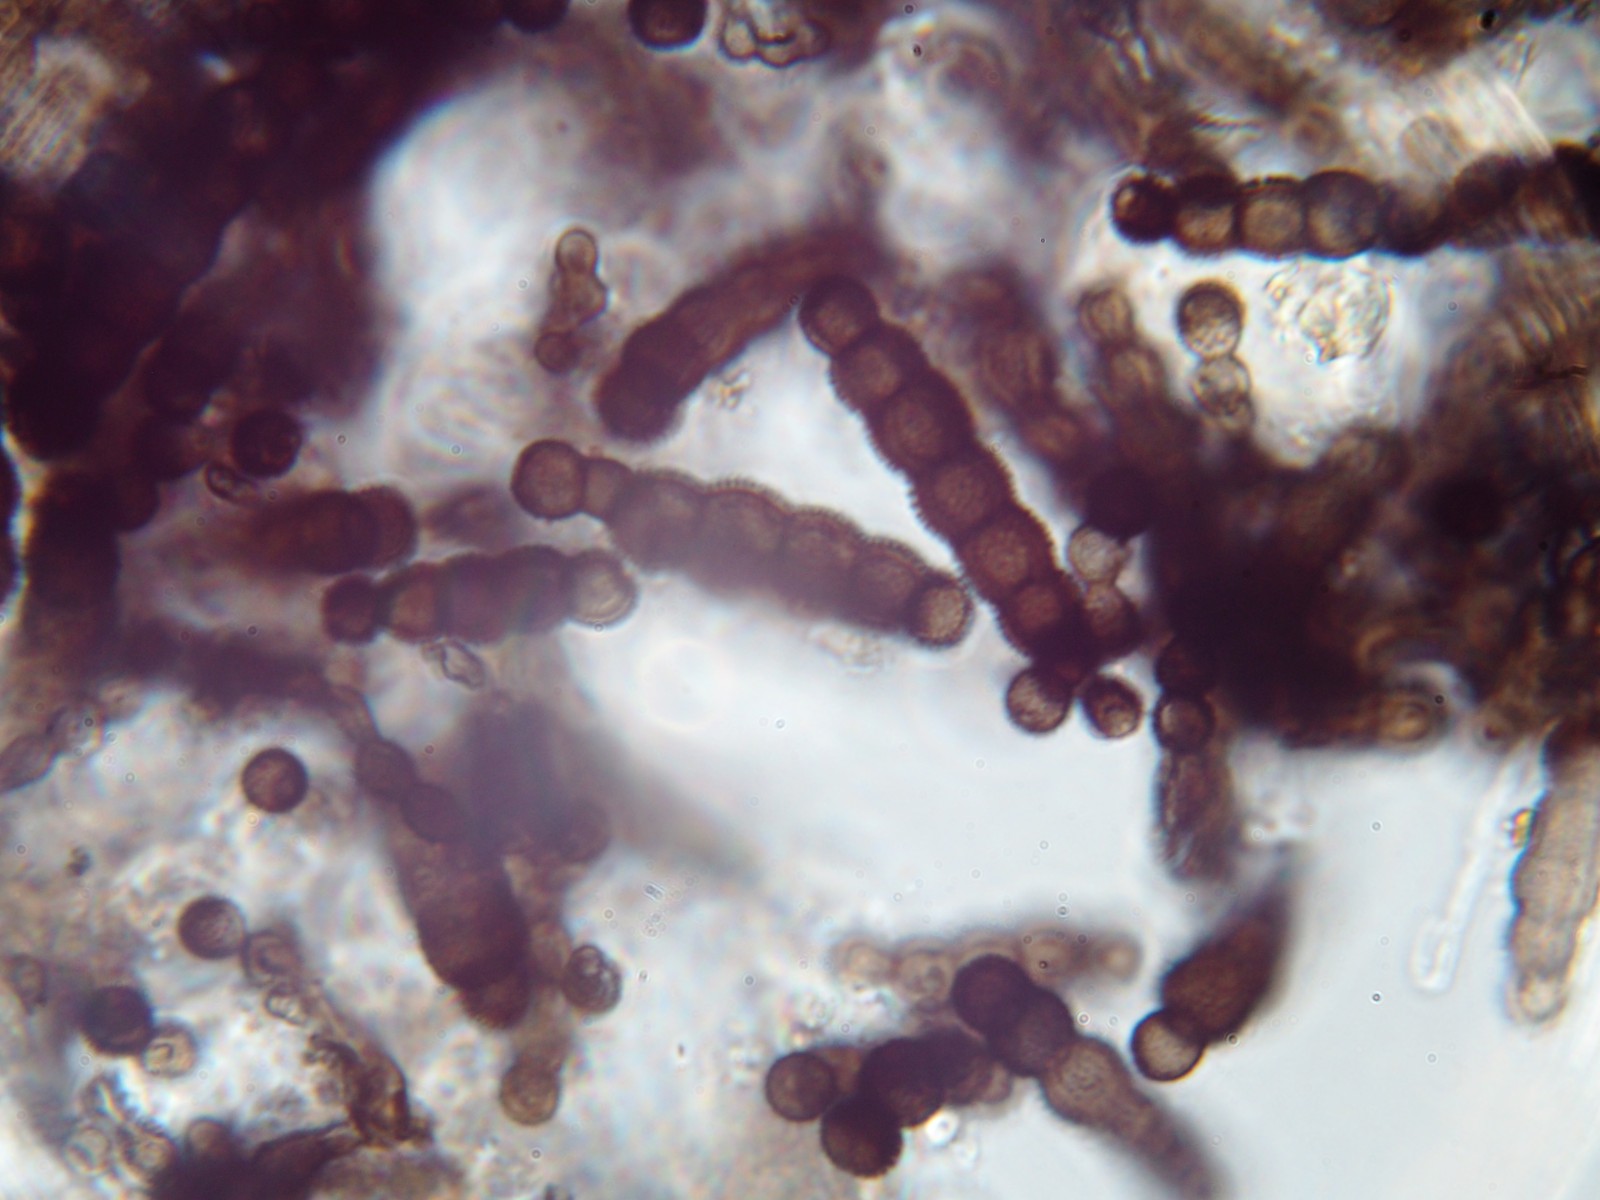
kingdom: Fungi
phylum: Ascomycota
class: Dothideomycetes
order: Pleosporales
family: Torulaceae
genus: Torula
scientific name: Torula herbarum
